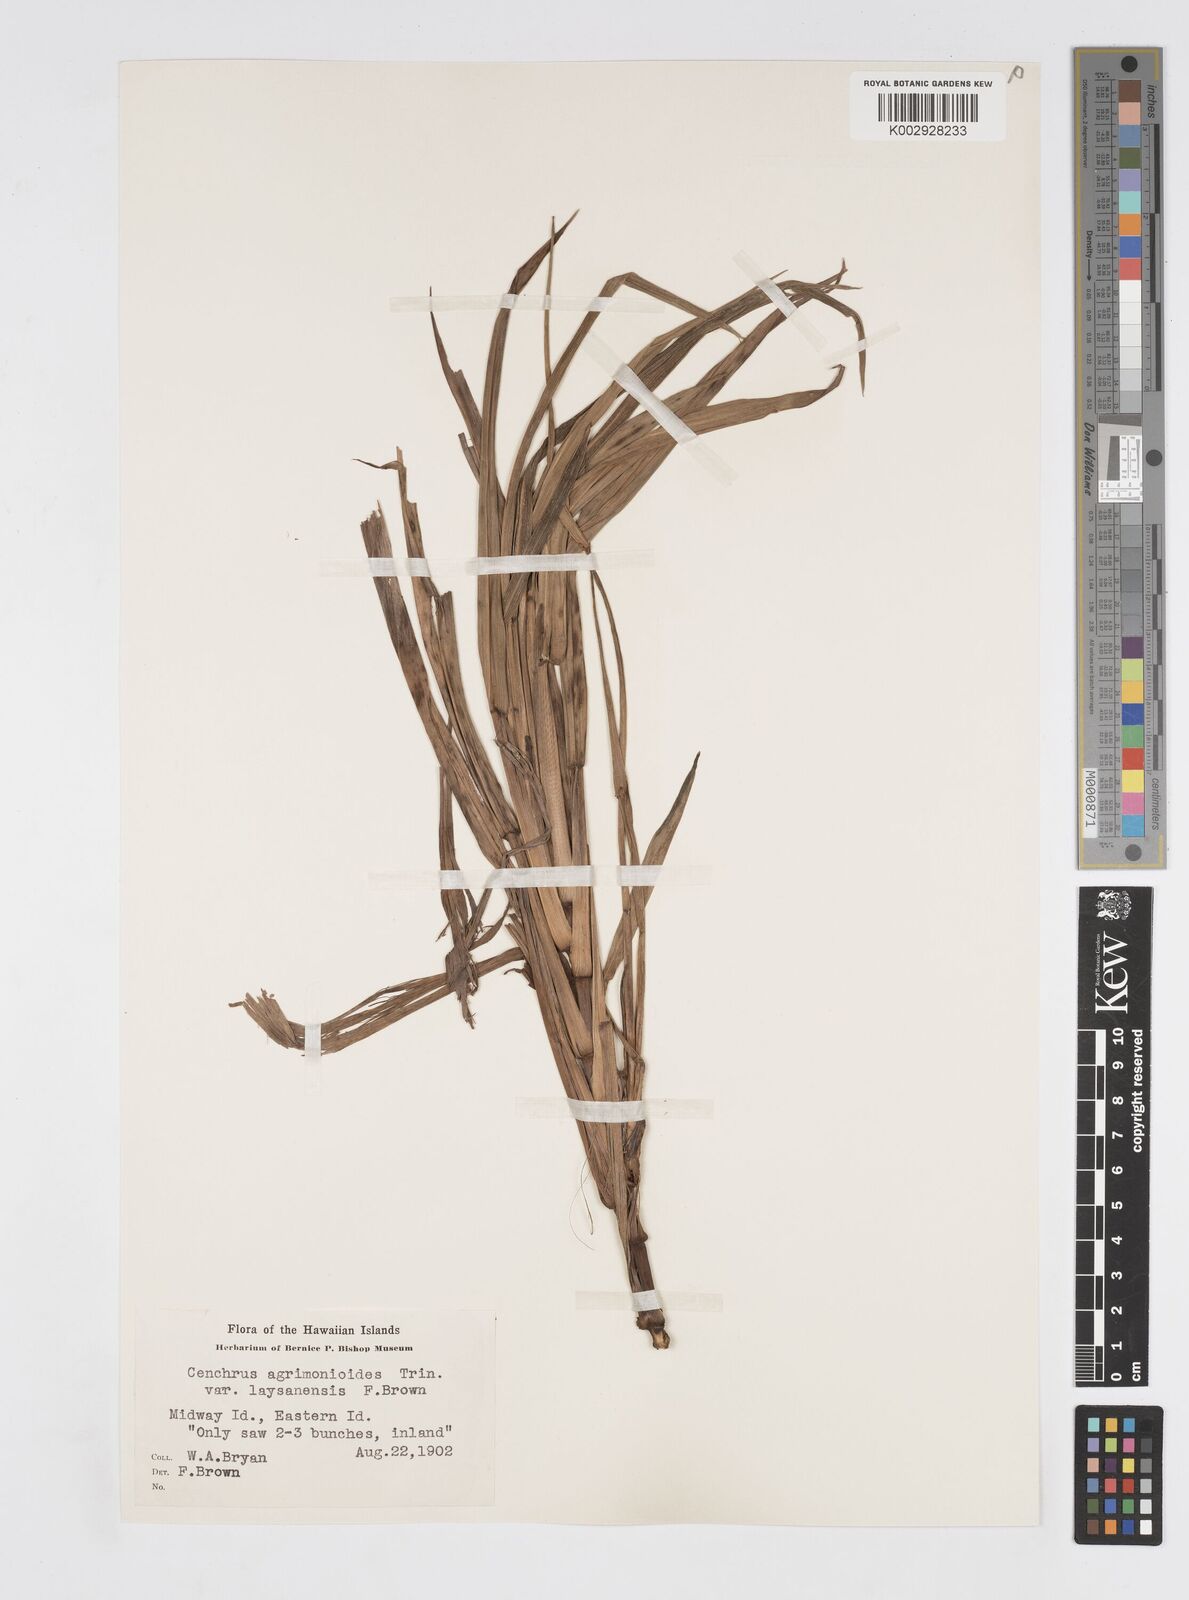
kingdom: Plantae
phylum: Tracheophyta
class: Liliopsida
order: Poales
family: Poaceae
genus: Cenchrus
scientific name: Cenchrus agrimonioides
